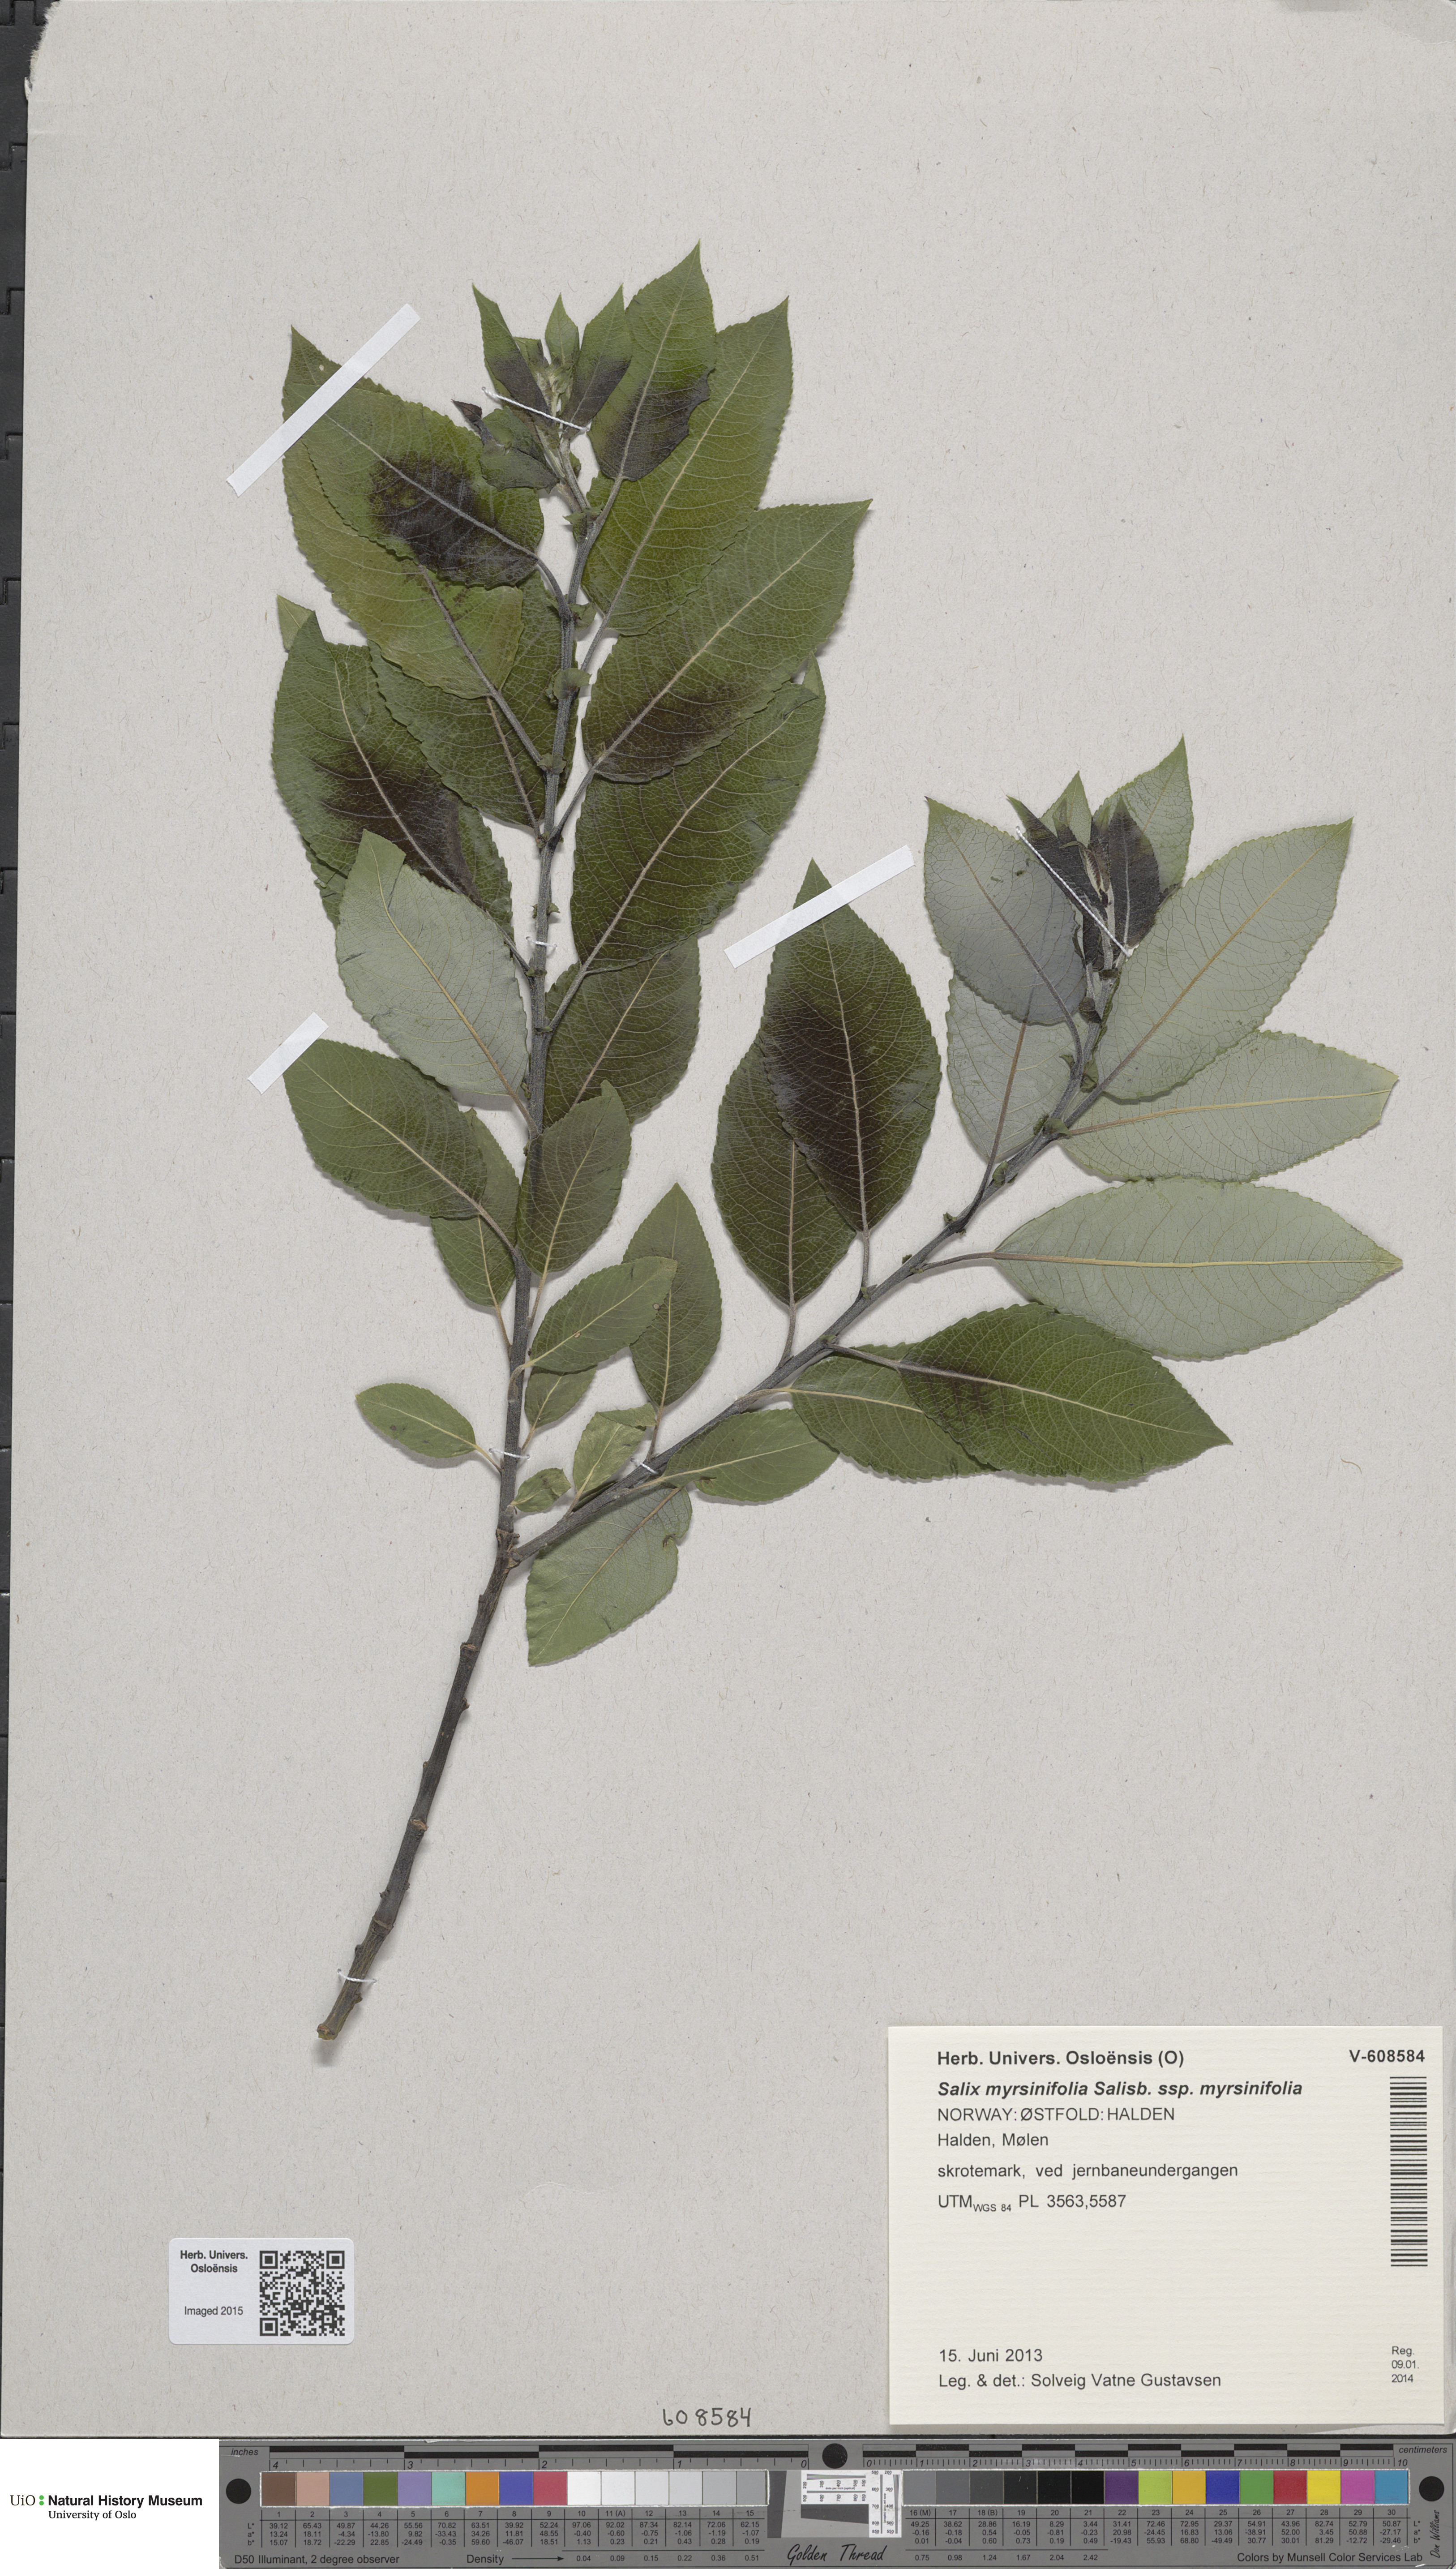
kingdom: Plantae
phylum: Tracheophyta
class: Magnoliopsida
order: Malpighiales
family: Salicaceae
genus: Salix
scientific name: Salix myrsinifolia
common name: Dark-leaved willow
